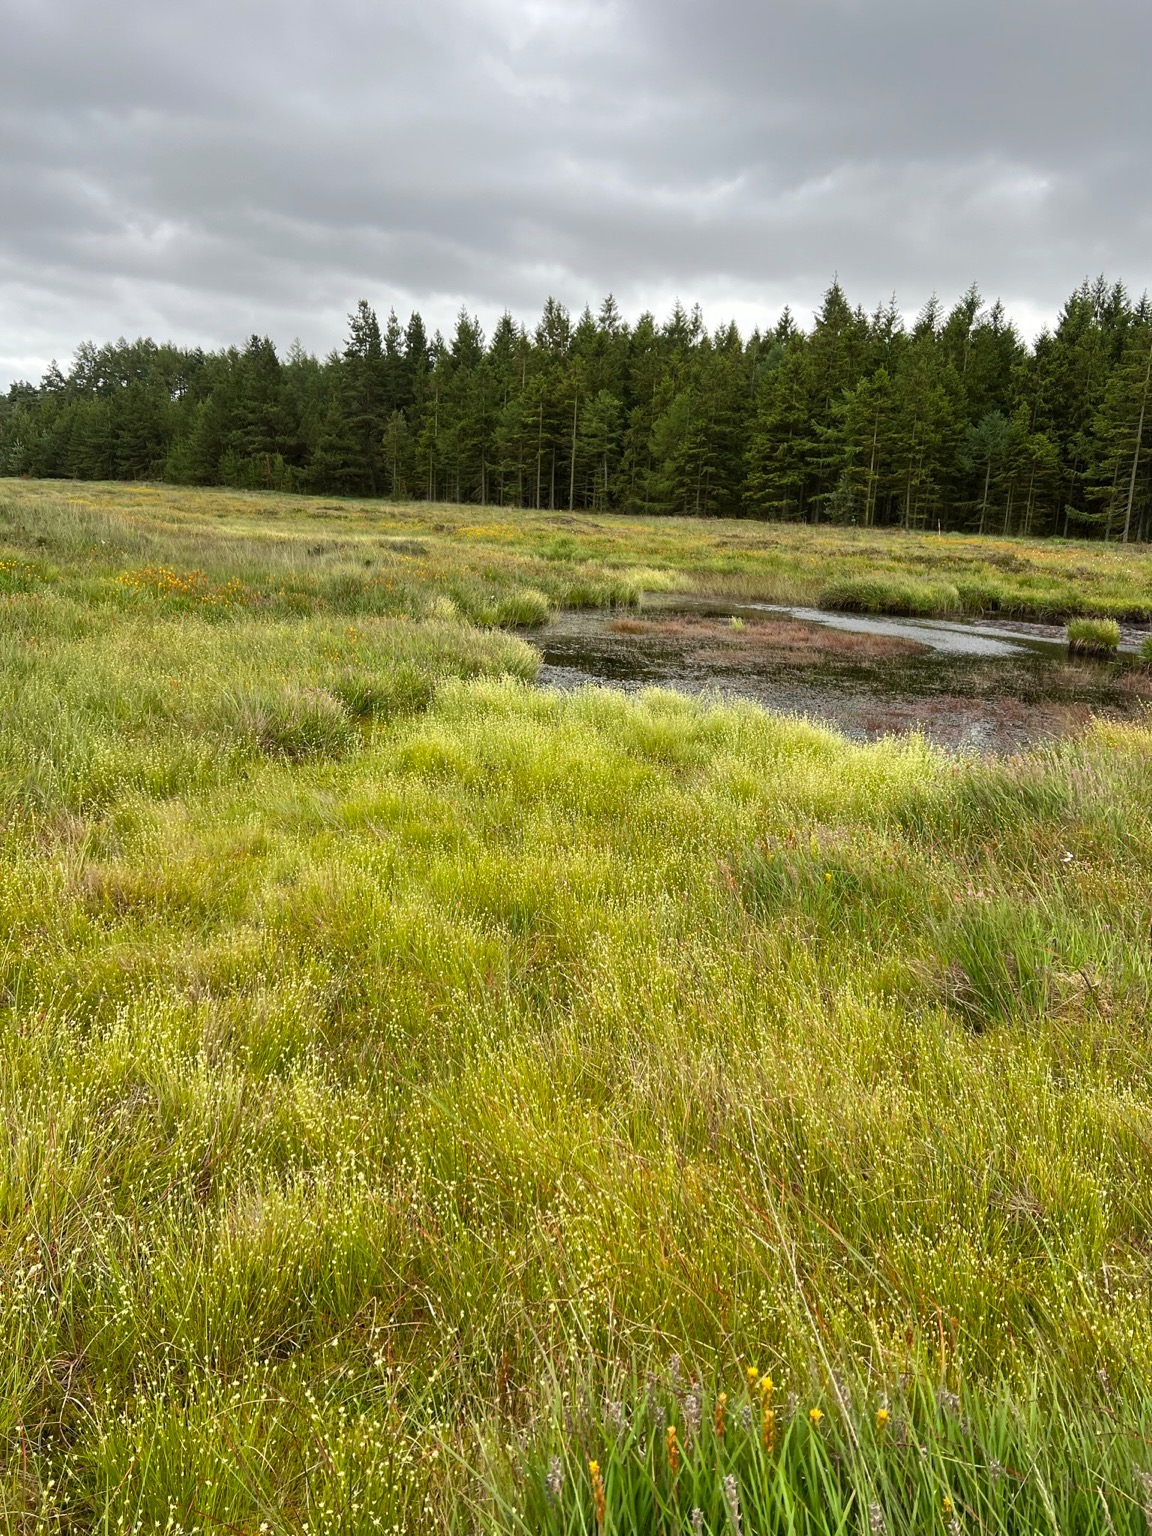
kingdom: Plantae
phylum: Tracheophyta
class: Liliopsida
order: Poales
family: Cyperaceae
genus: Rhynchospora
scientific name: Rhynchospora alba
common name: Hvid næbfrø
